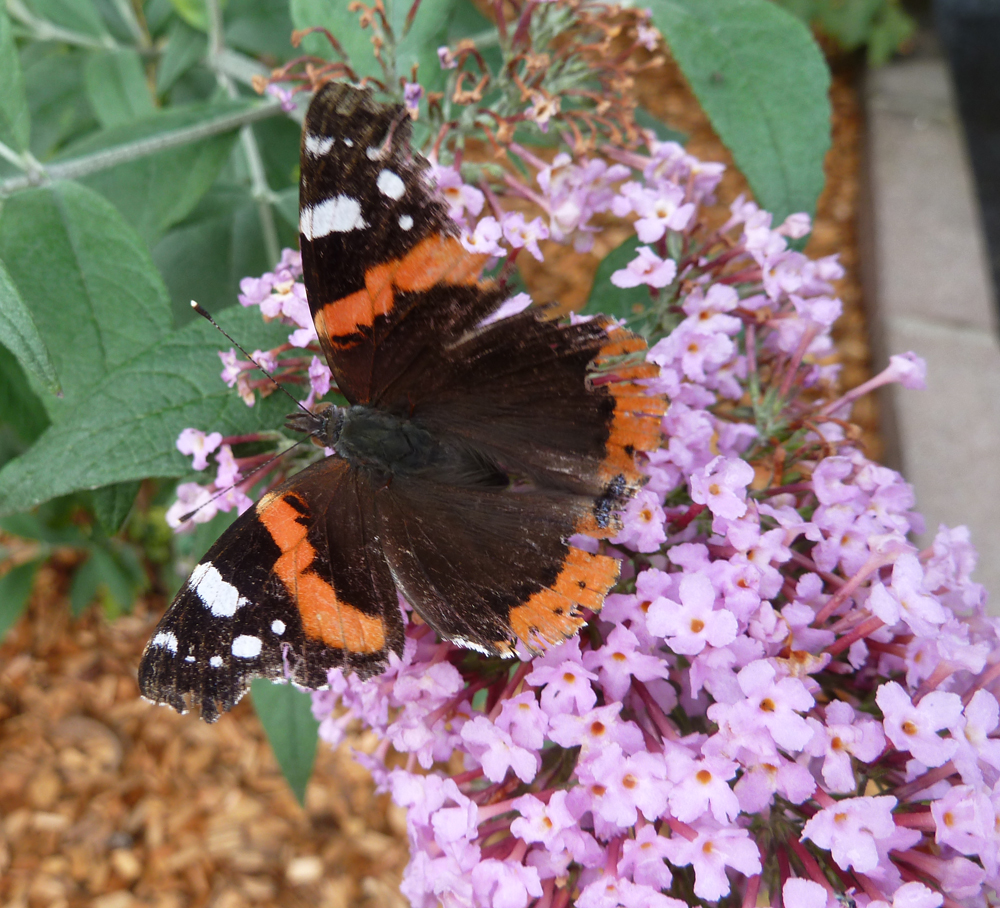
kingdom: Animalia
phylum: Arthropoda
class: Insecta
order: Lepidoptera
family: Nymphalidae
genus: Vanessa
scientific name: Vanessa atalanta
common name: Red admiral
